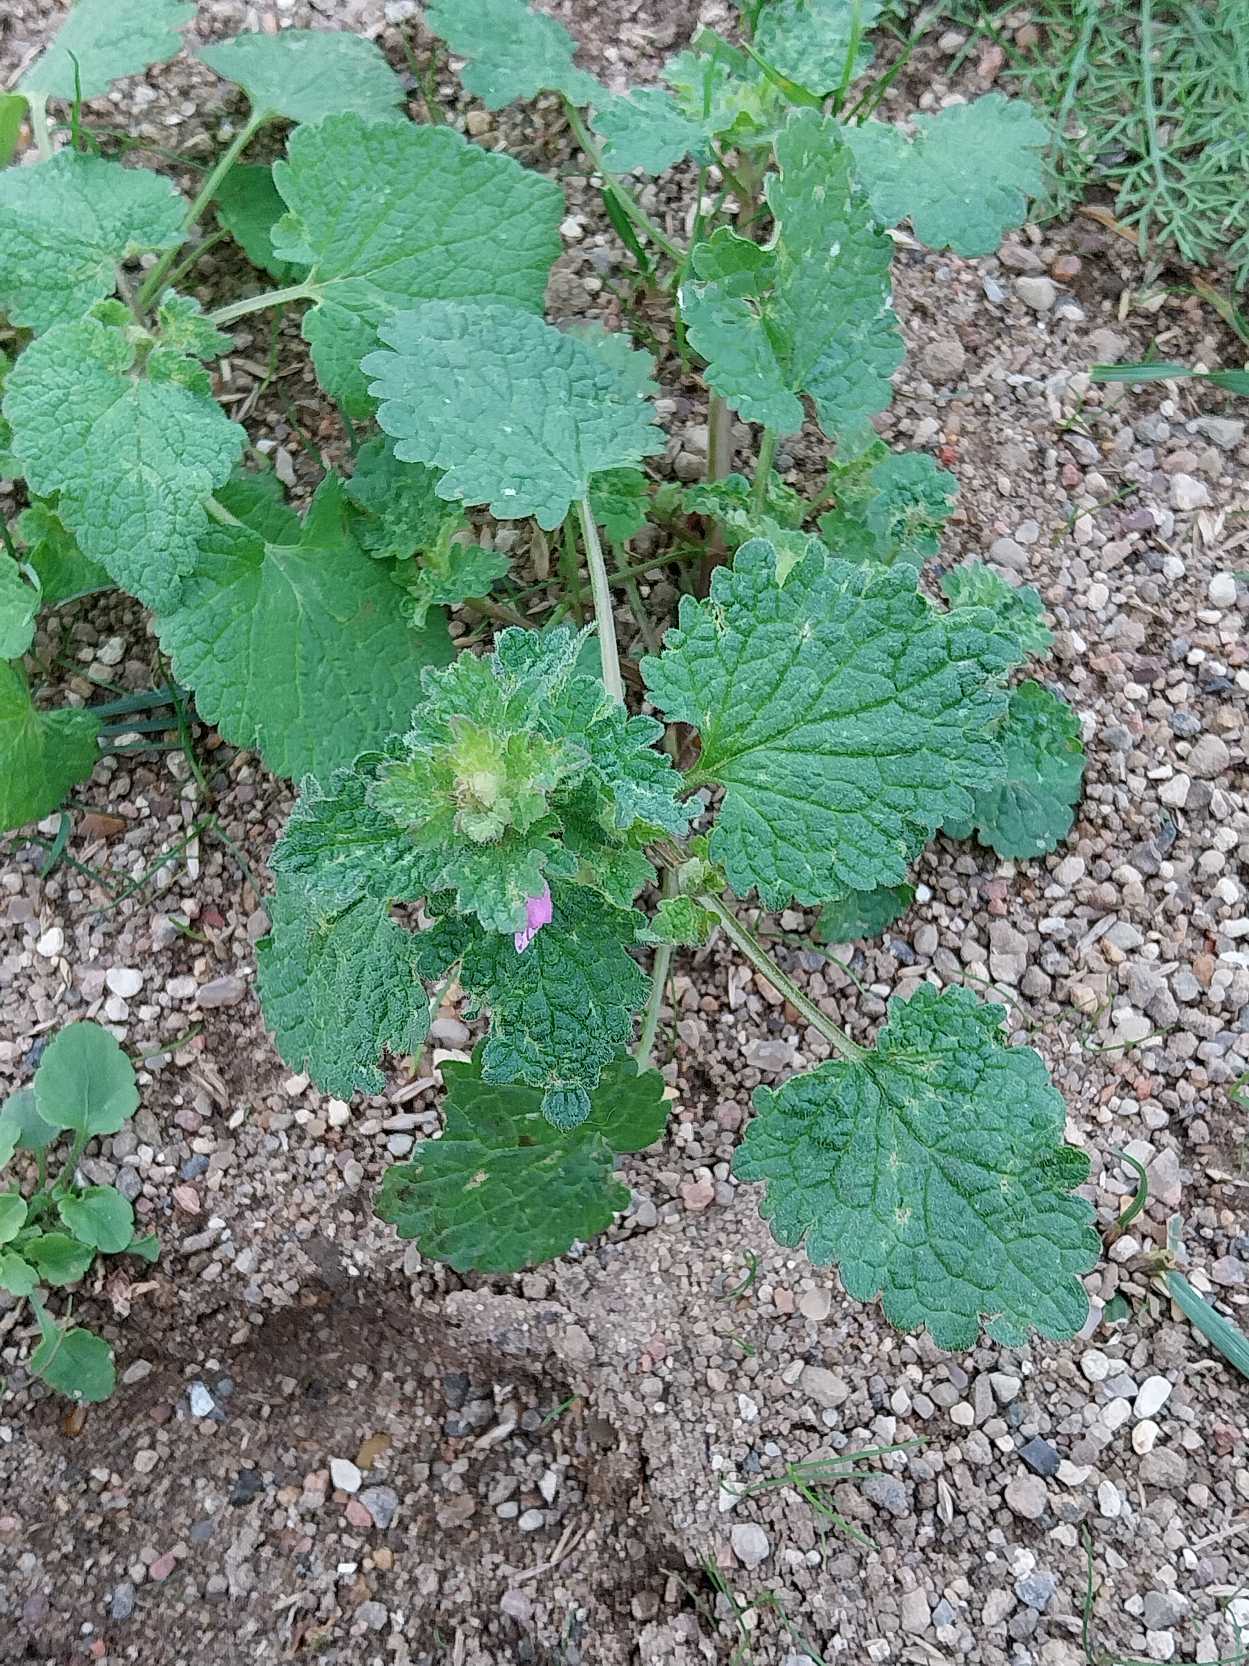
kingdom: Plantae
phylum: Tracheophyta
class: Magnoliopsida
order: Lamiales
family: Lamiaceae
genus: Lamium
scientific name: Lamium hybridum
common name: Fliget tvetand
